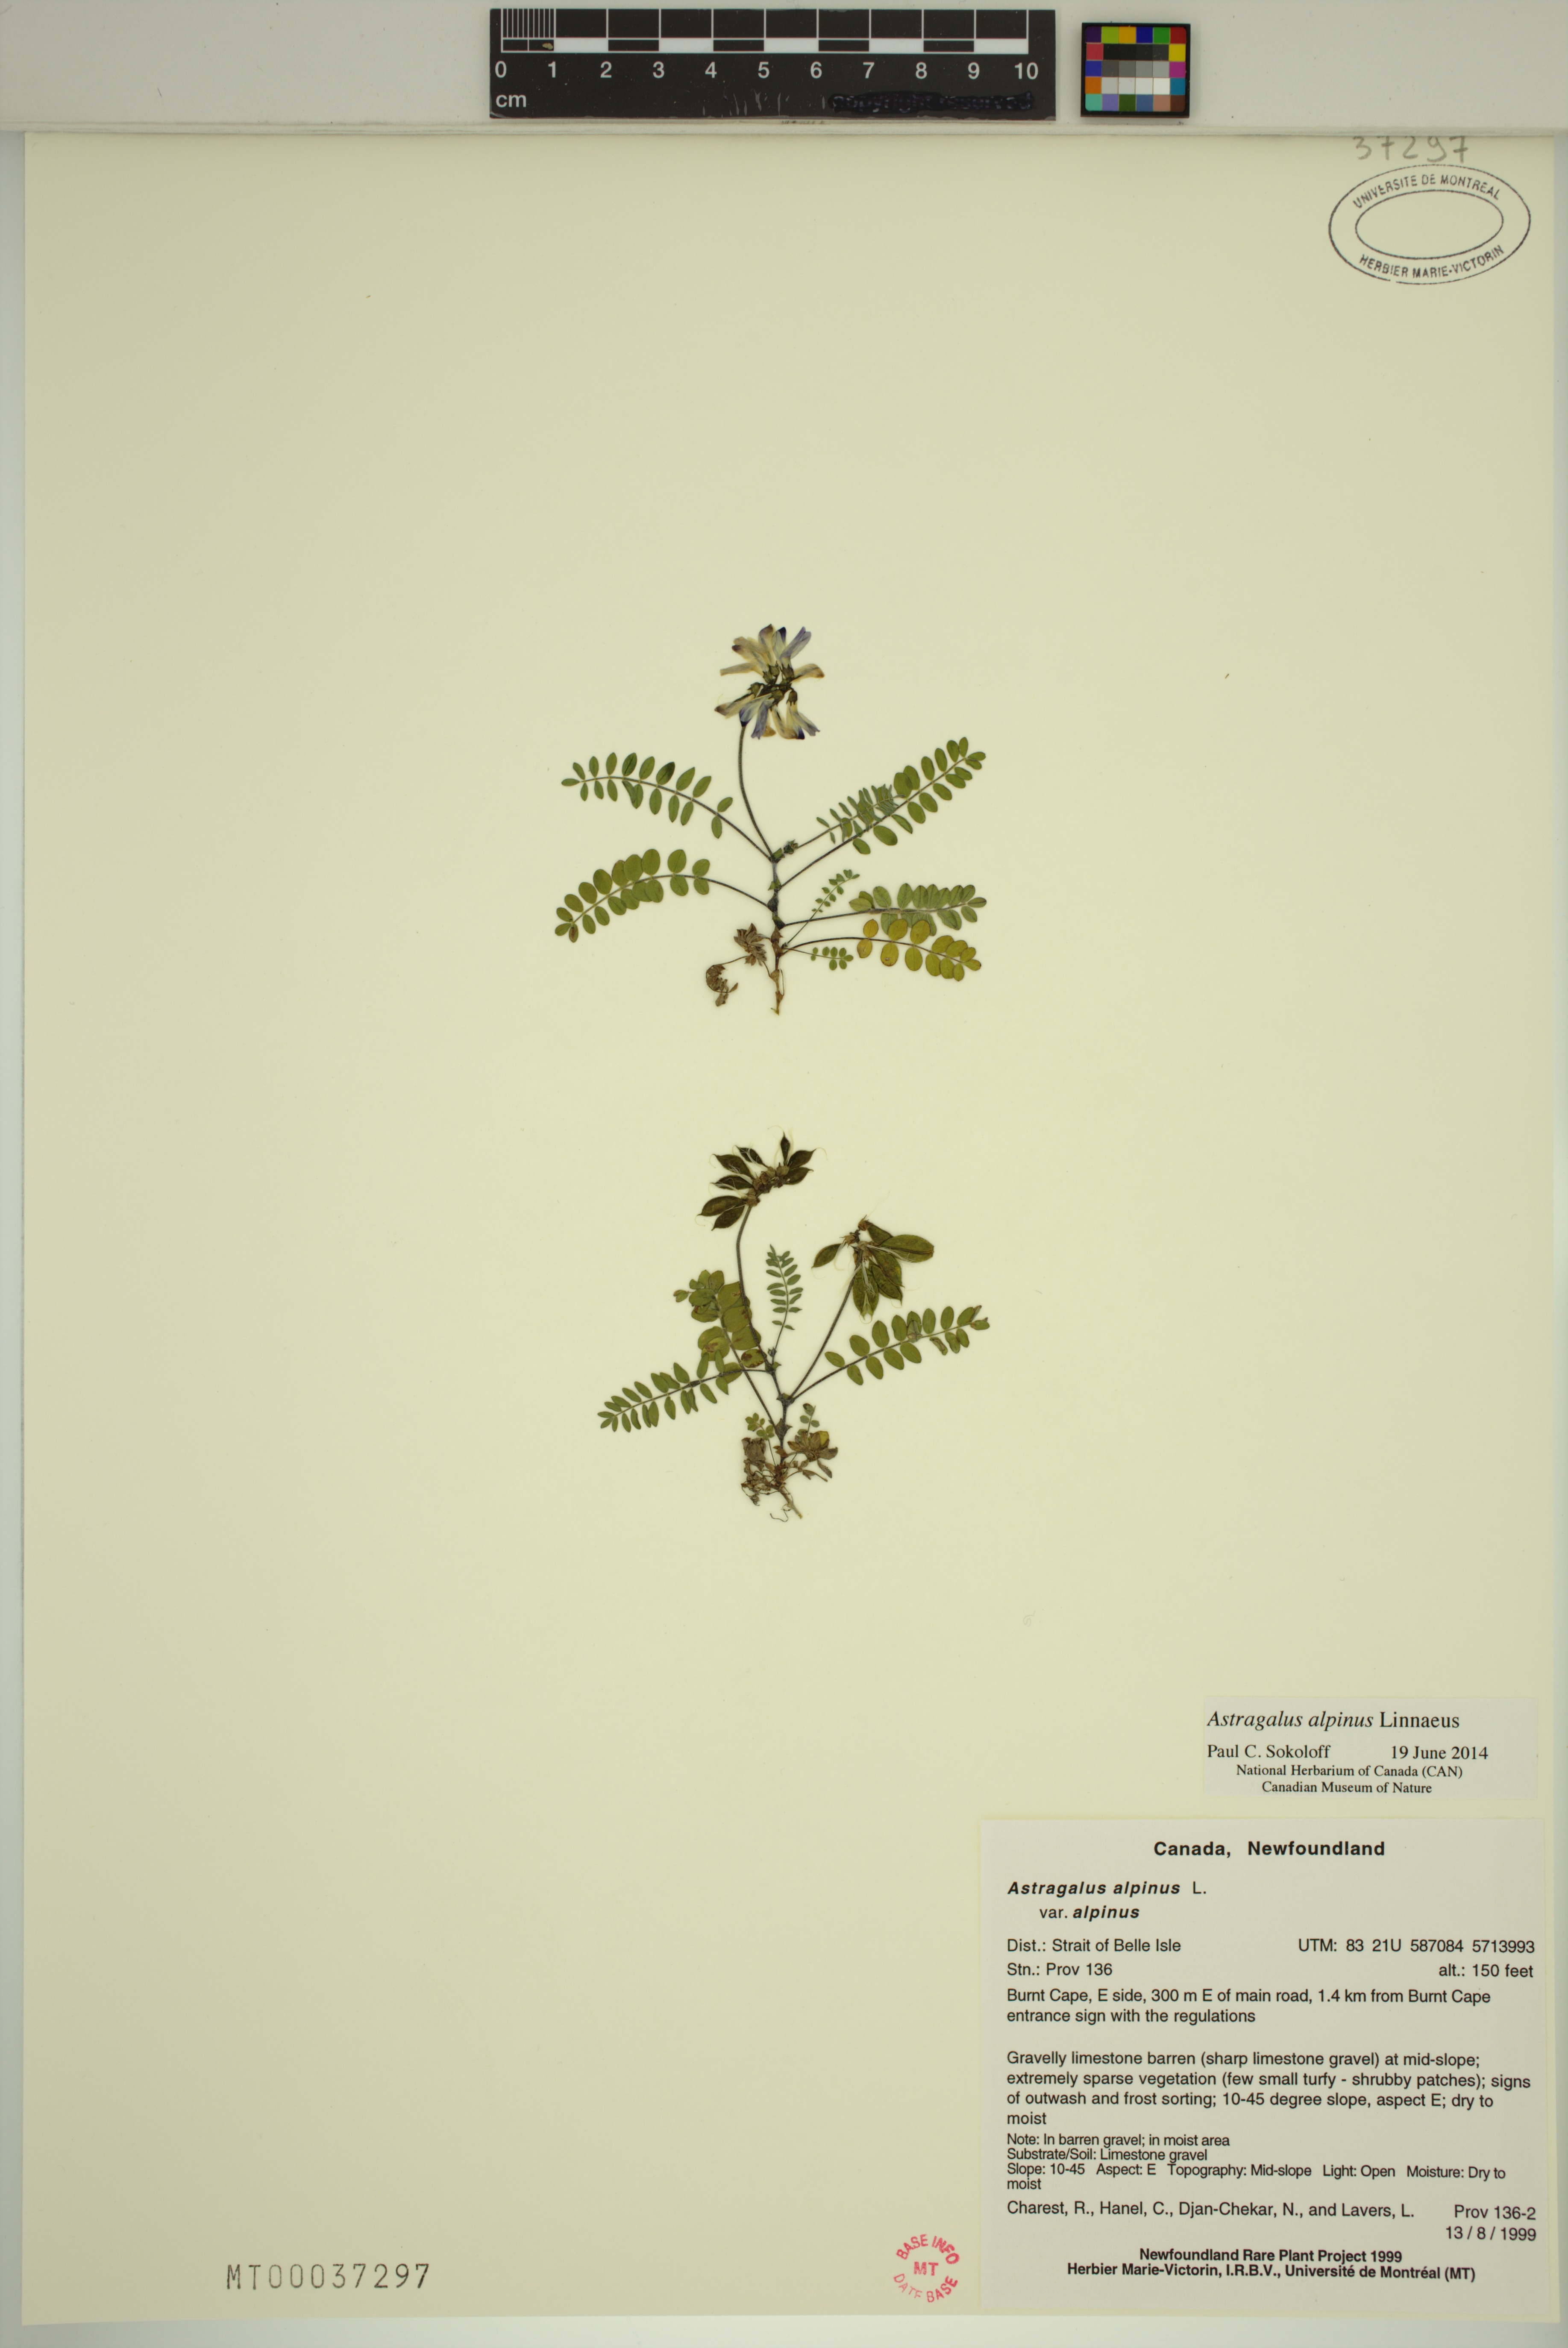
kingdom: Plantae
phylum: Tracheophyta
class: Magnoliopsida
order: Fabales
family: Fabaceae
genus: Astragalus
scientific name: Astragalus alpinus
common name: Alpine milk-vetch
